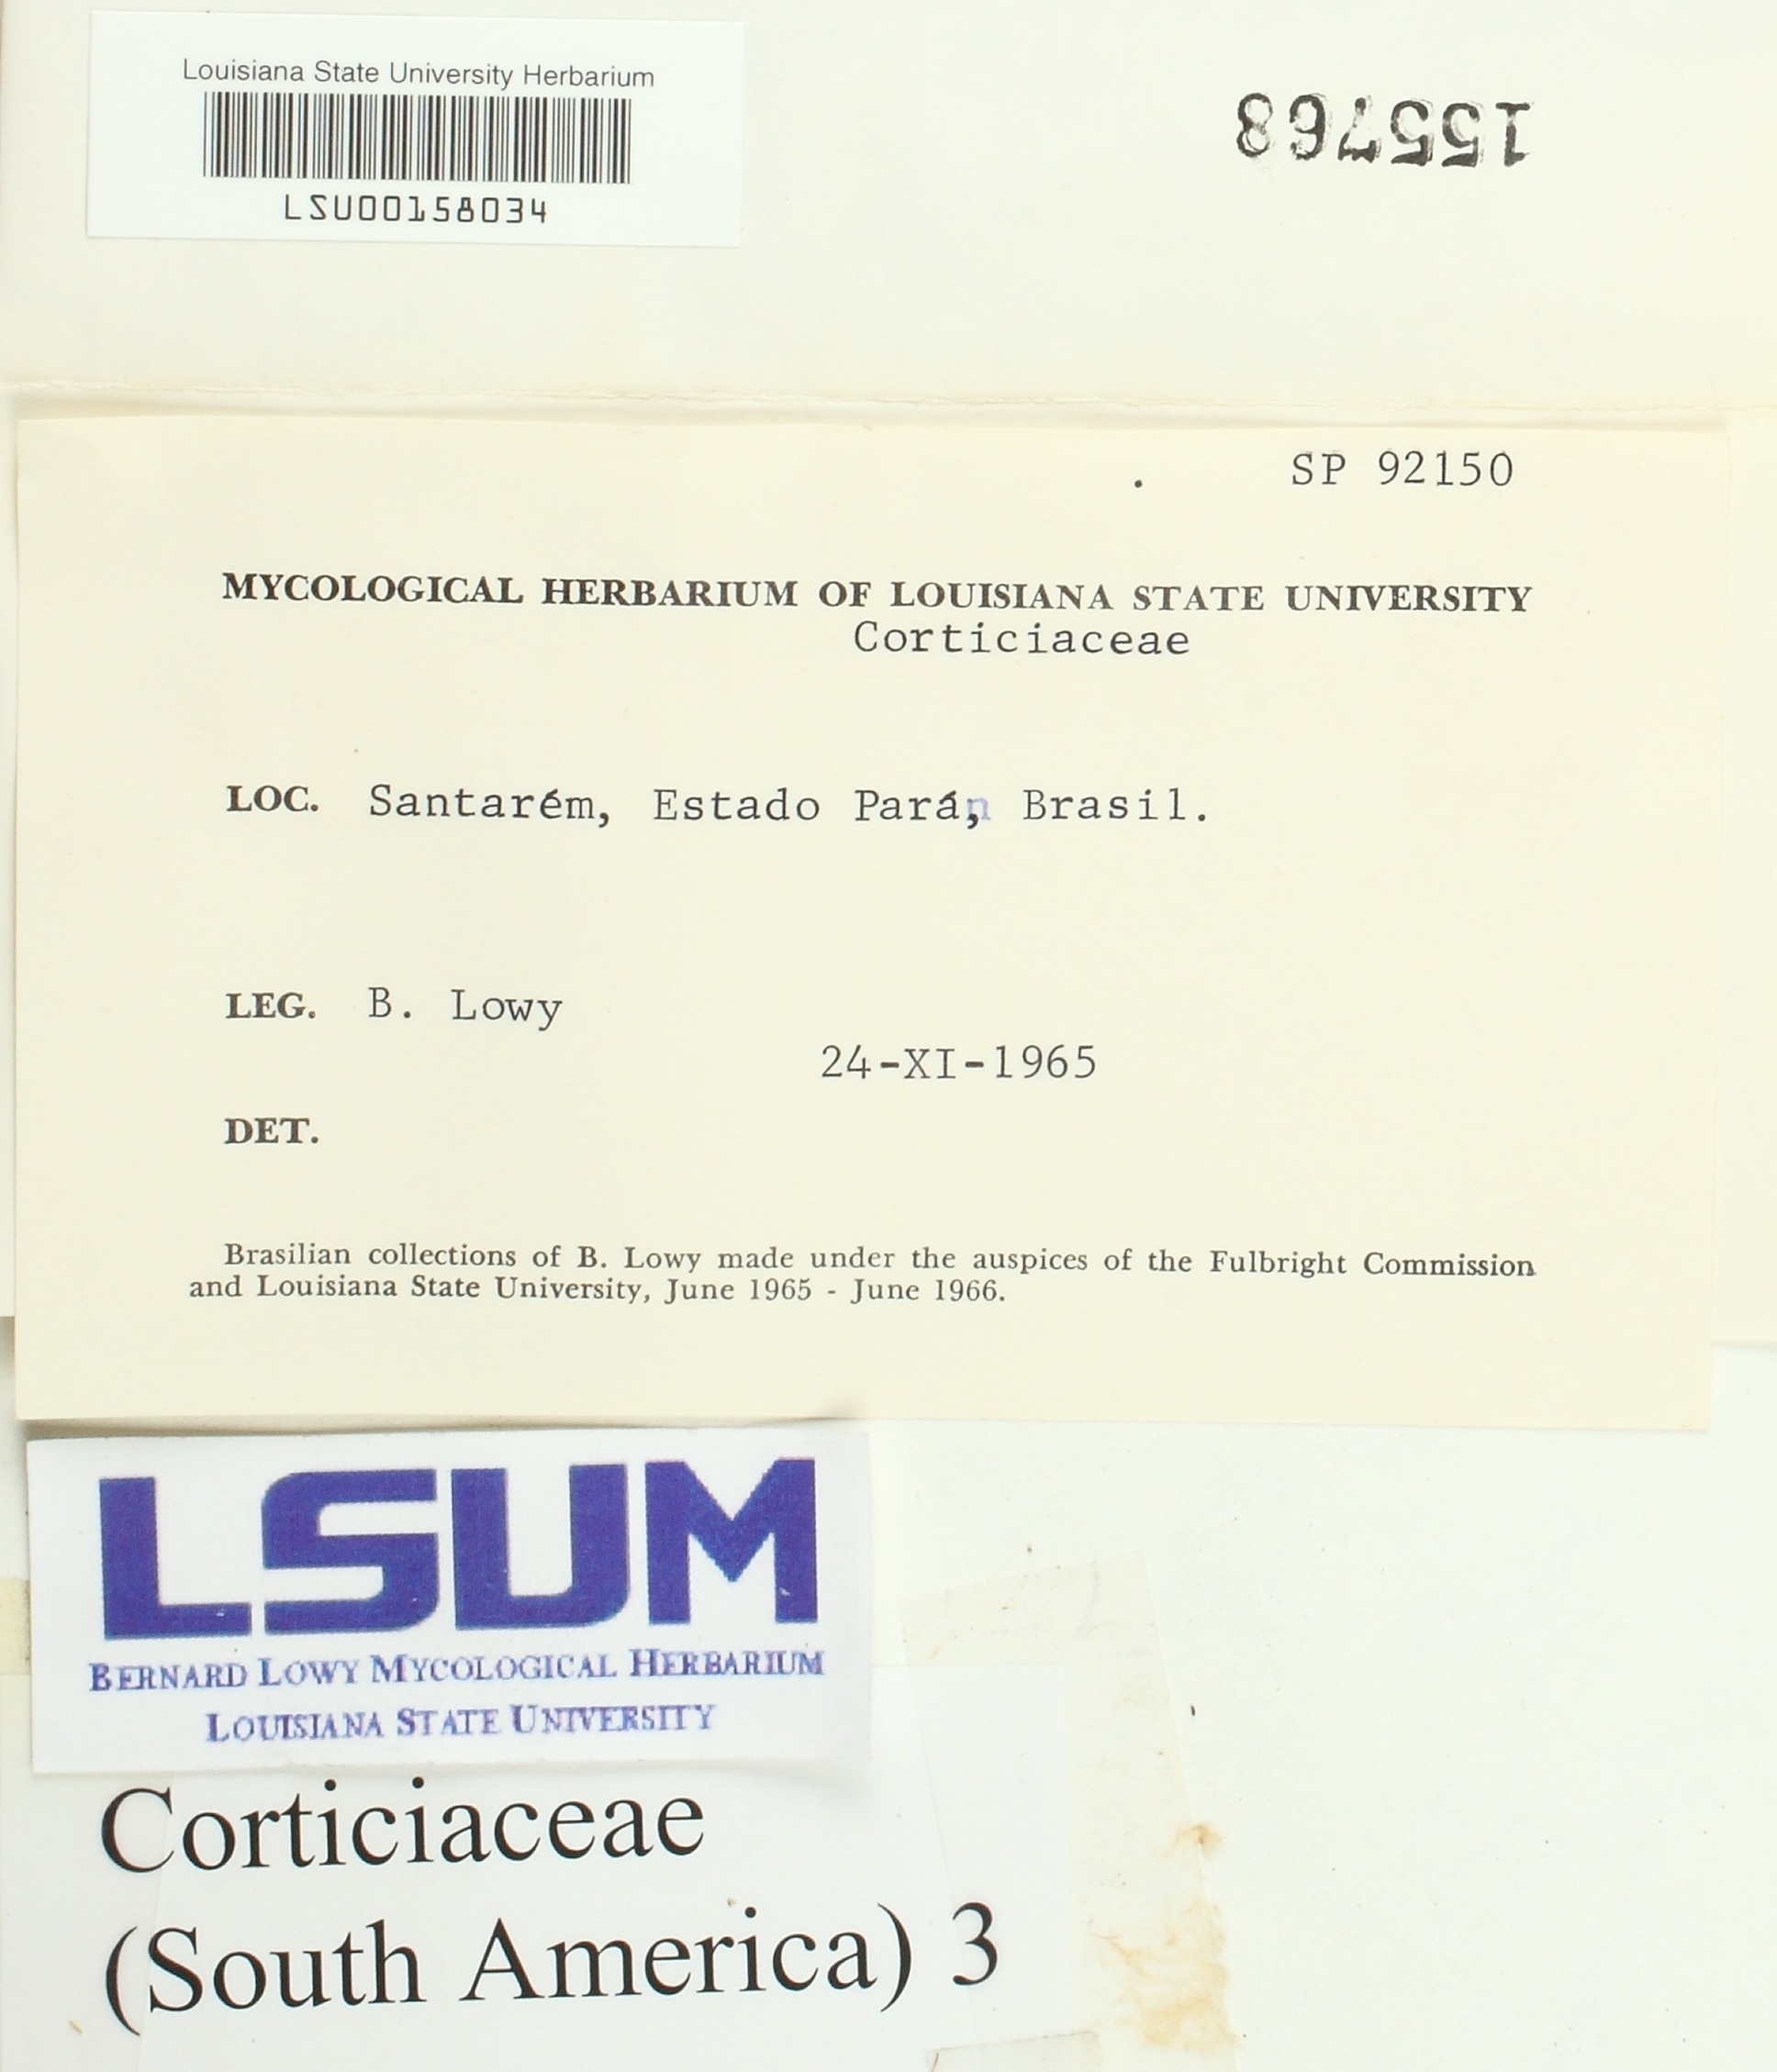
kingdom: Fungi
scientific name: Fungi
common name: Fungi
